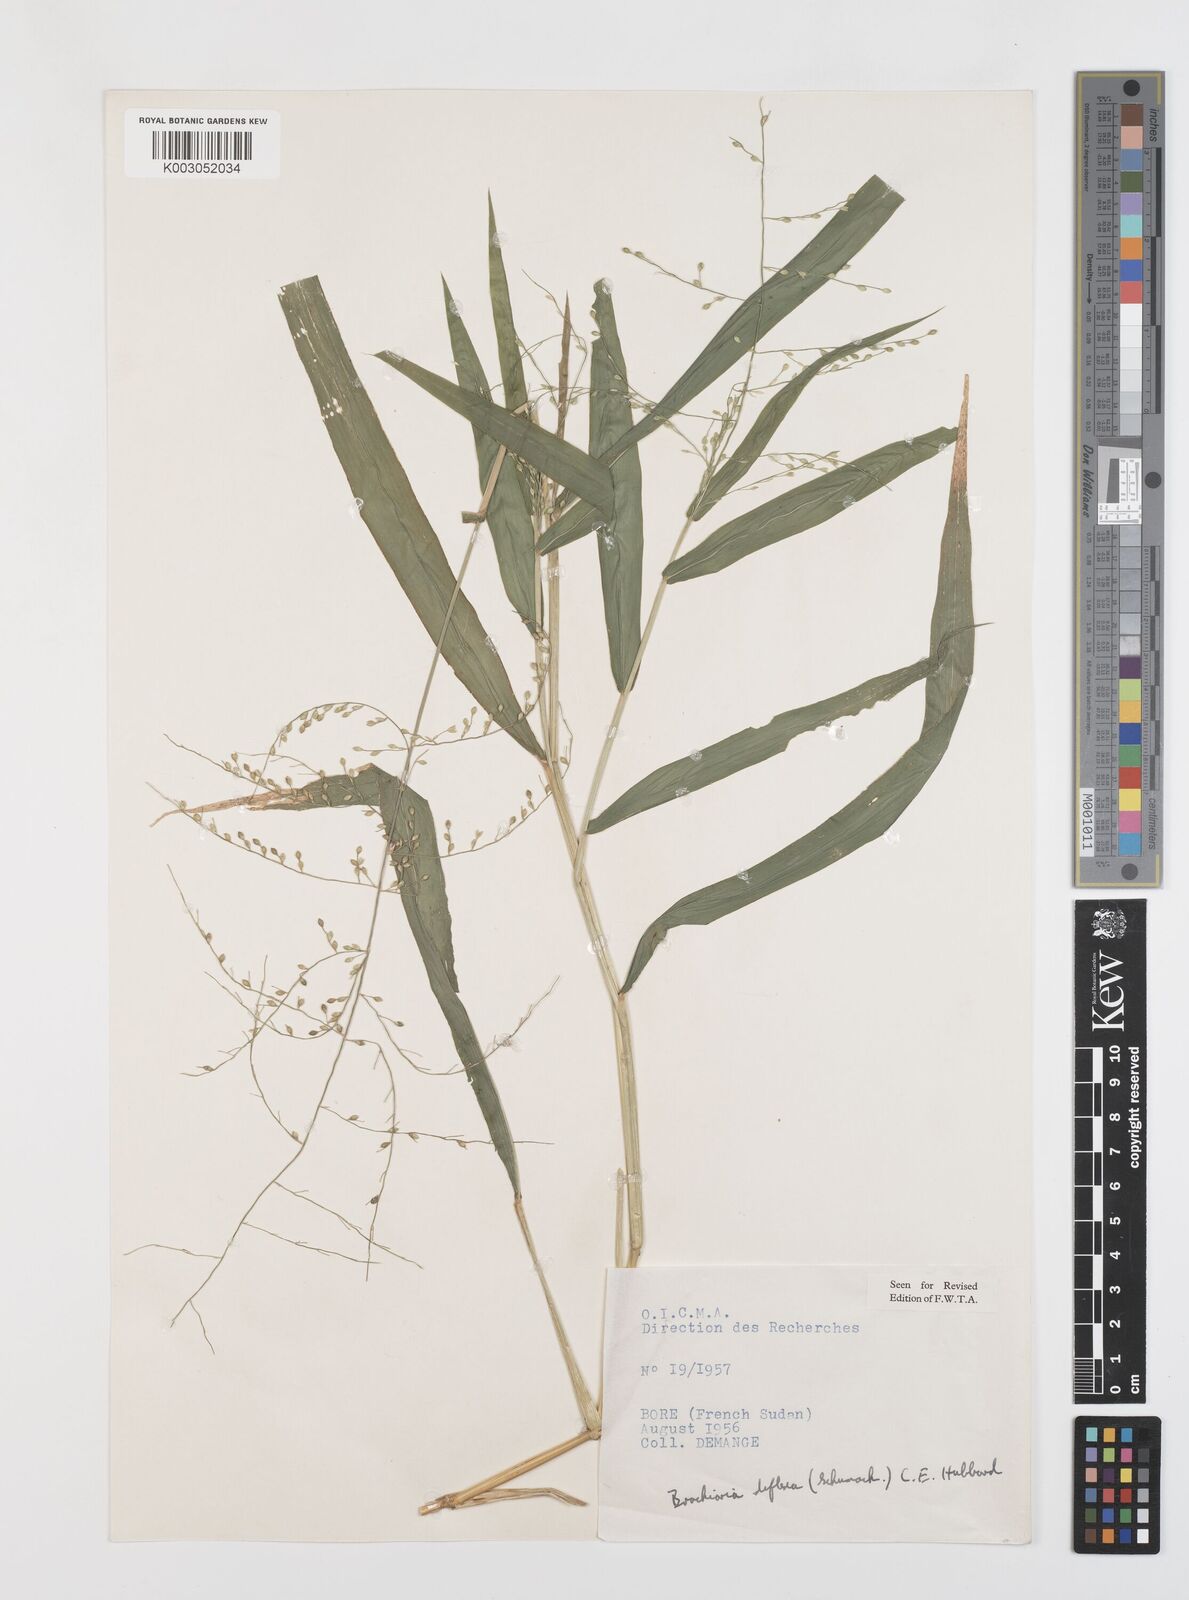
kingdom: Plantae
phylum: Tracheophyta
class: Liliopsida
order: Poales
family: Poaceae
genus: Urochloa
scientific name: Urochloa deflexa
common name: Guinea millet
